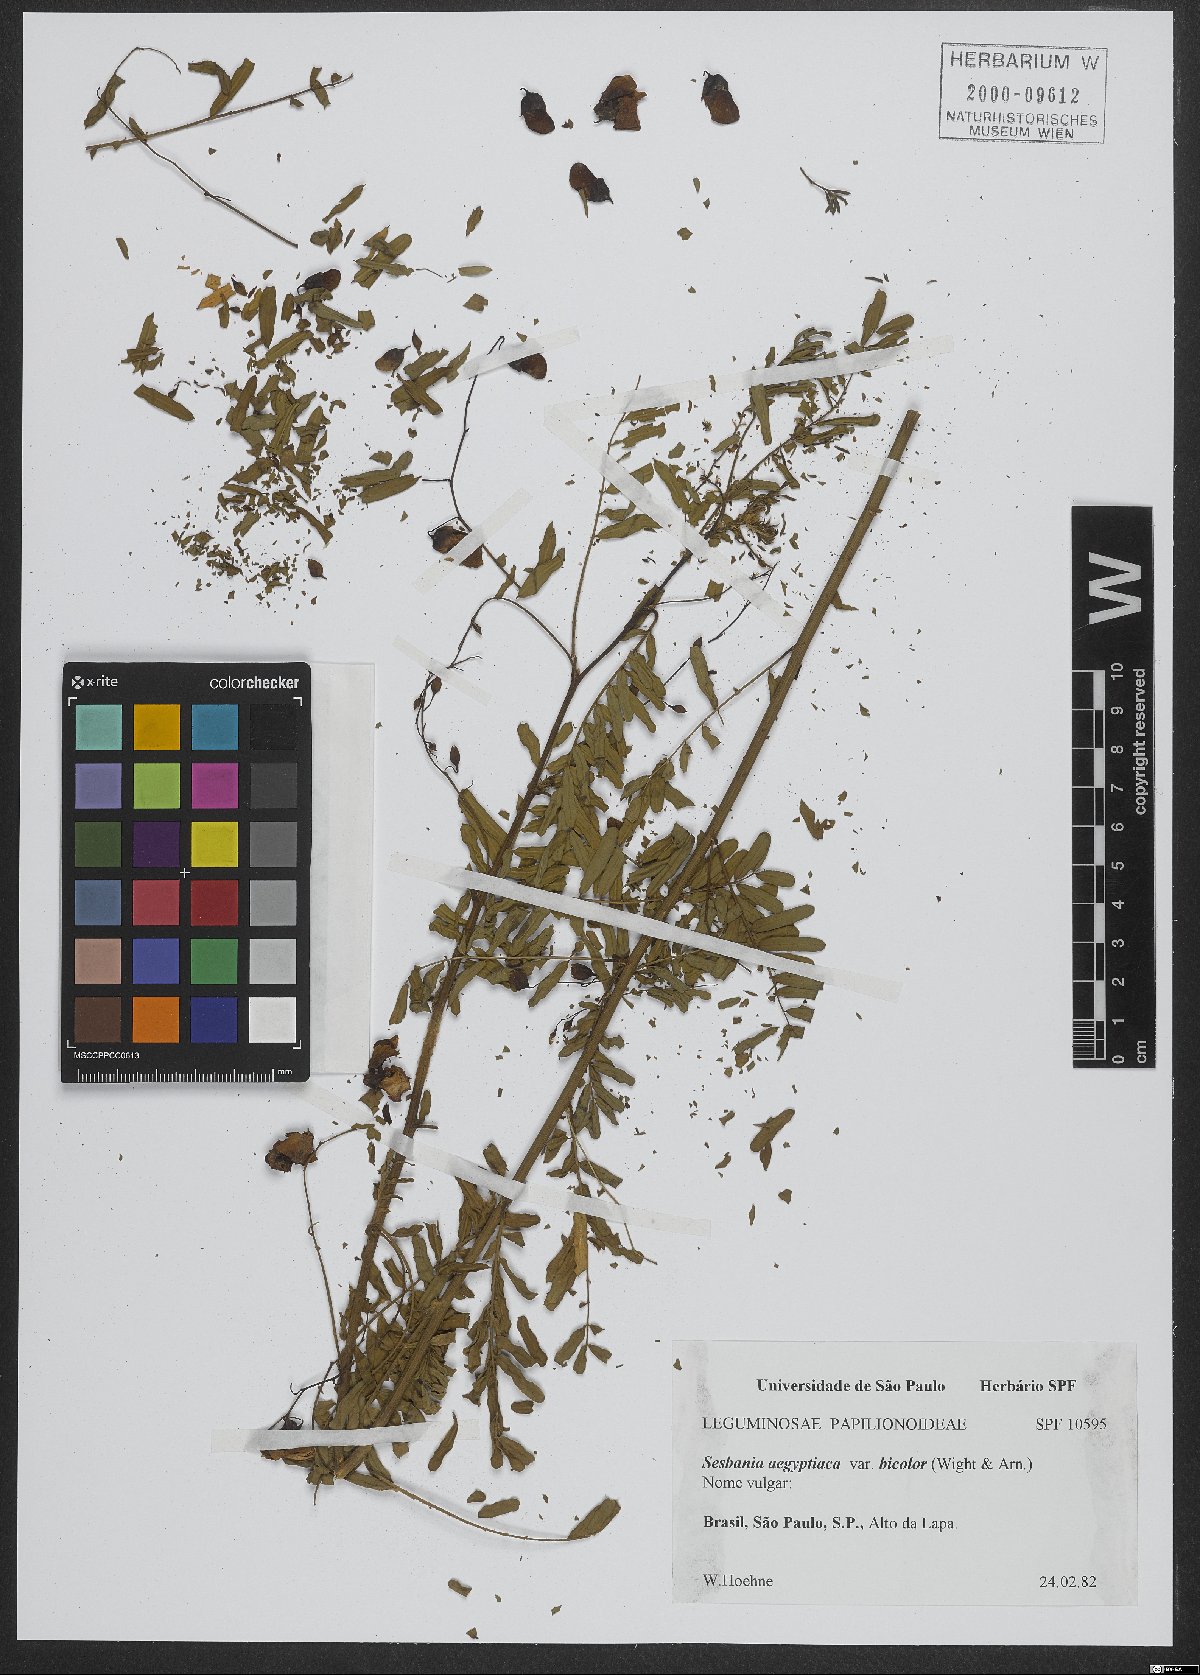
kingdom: Plantae
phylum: Tracheophyta
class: Magnoliopsida
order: Fabales
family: Fabaceae
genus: Sesbania
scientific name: Sesbania sesban
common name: Egyptian sesban
